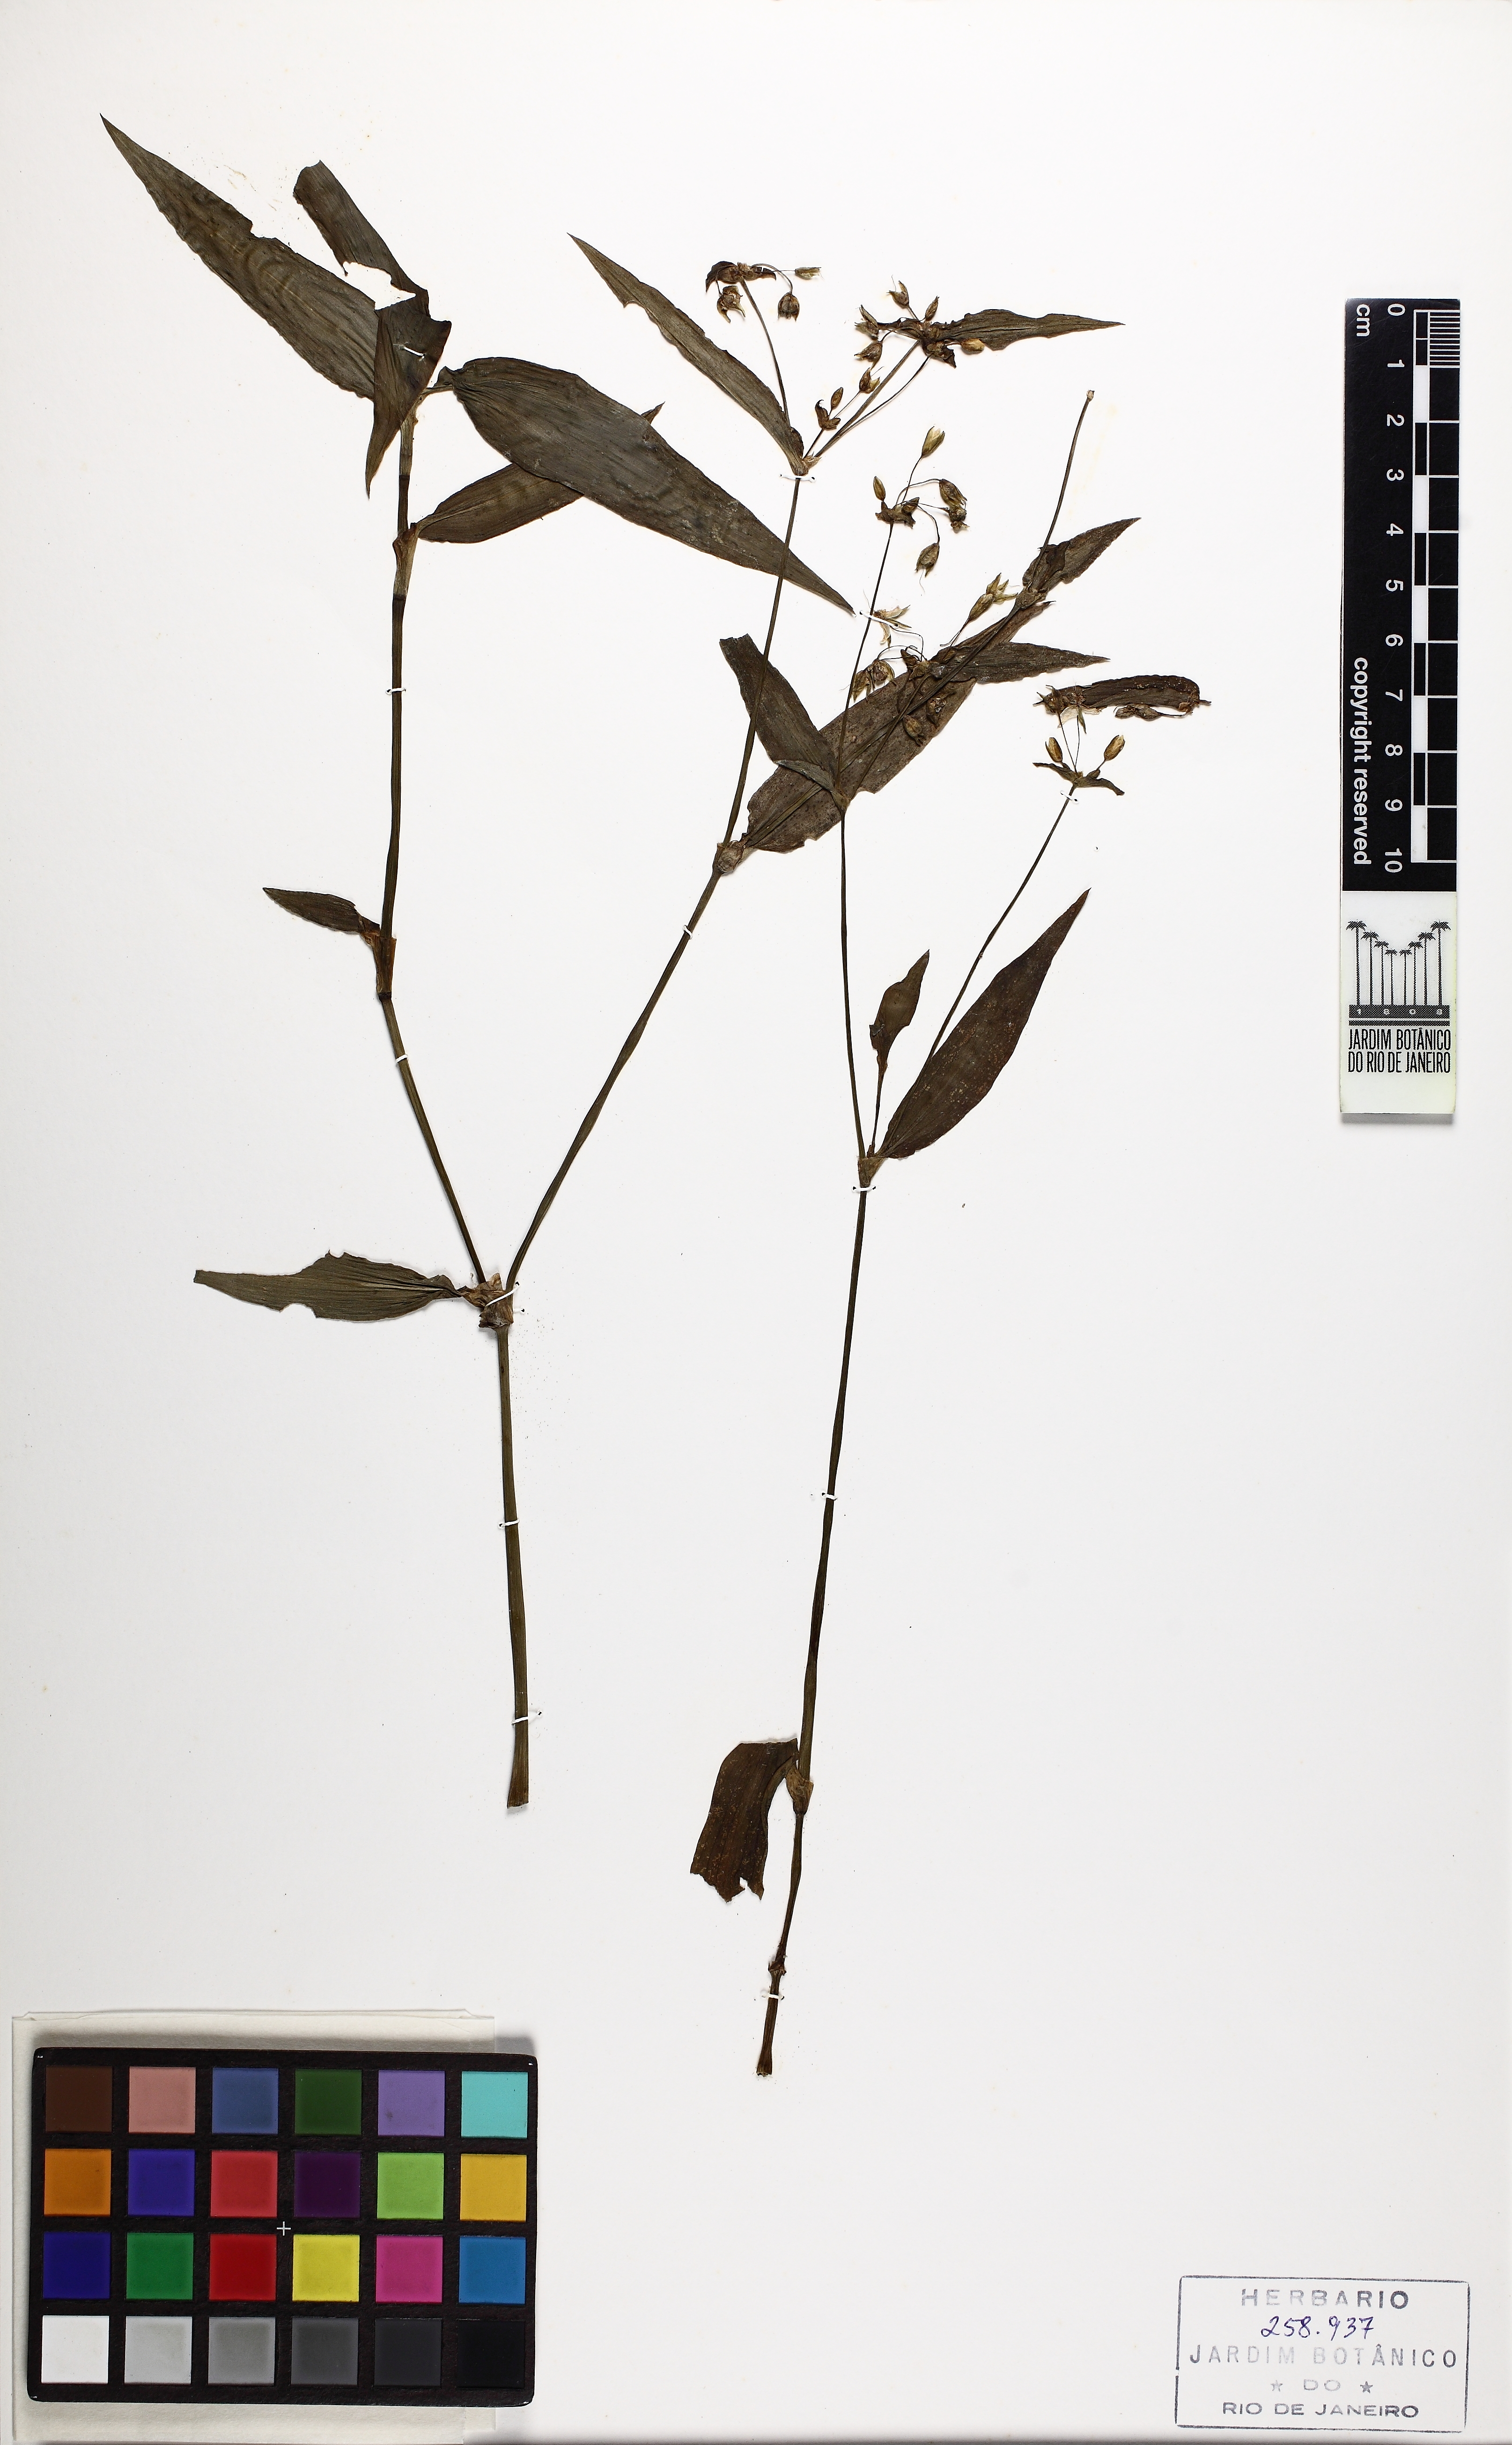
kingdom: Plantae
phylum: Tracheophyta
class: Liliopsida
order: Commelinales
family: Commelinaceae
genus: Tradescantia
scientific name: Tradescantia atlantica
